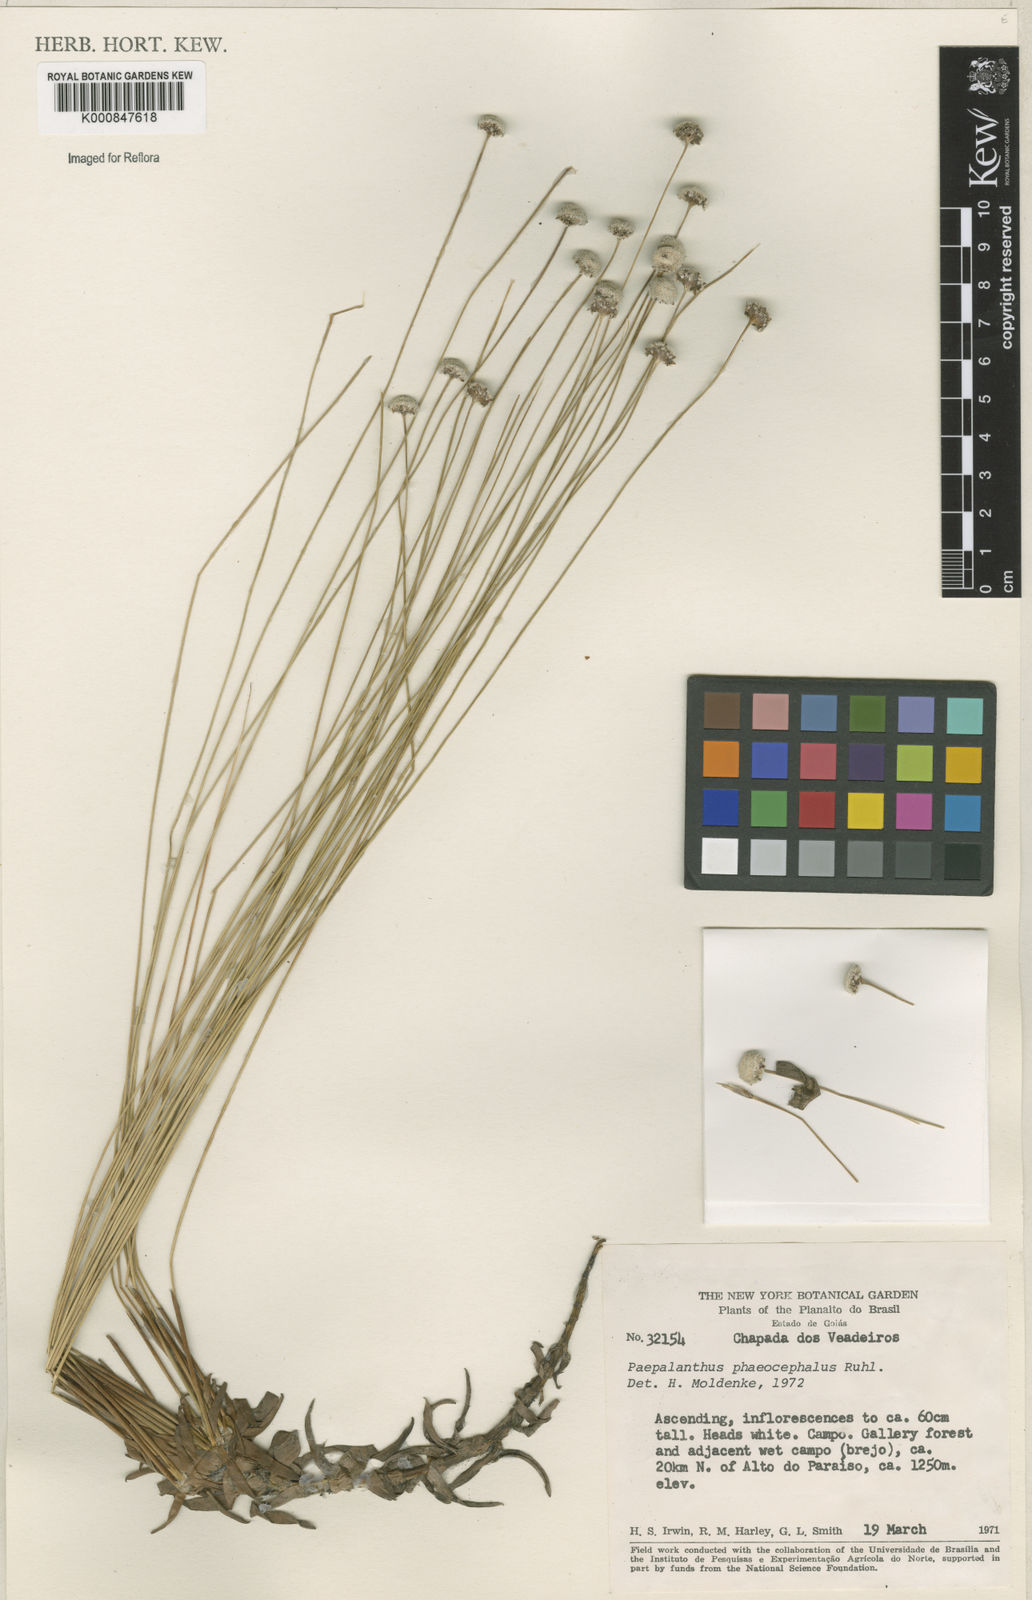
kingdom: Plantae
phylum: Tracheophyta
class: Liliopsida
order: Poales
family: Eriocaulaceae
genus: Paepalanthus
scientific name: Paepalanthus phaeocephalus
